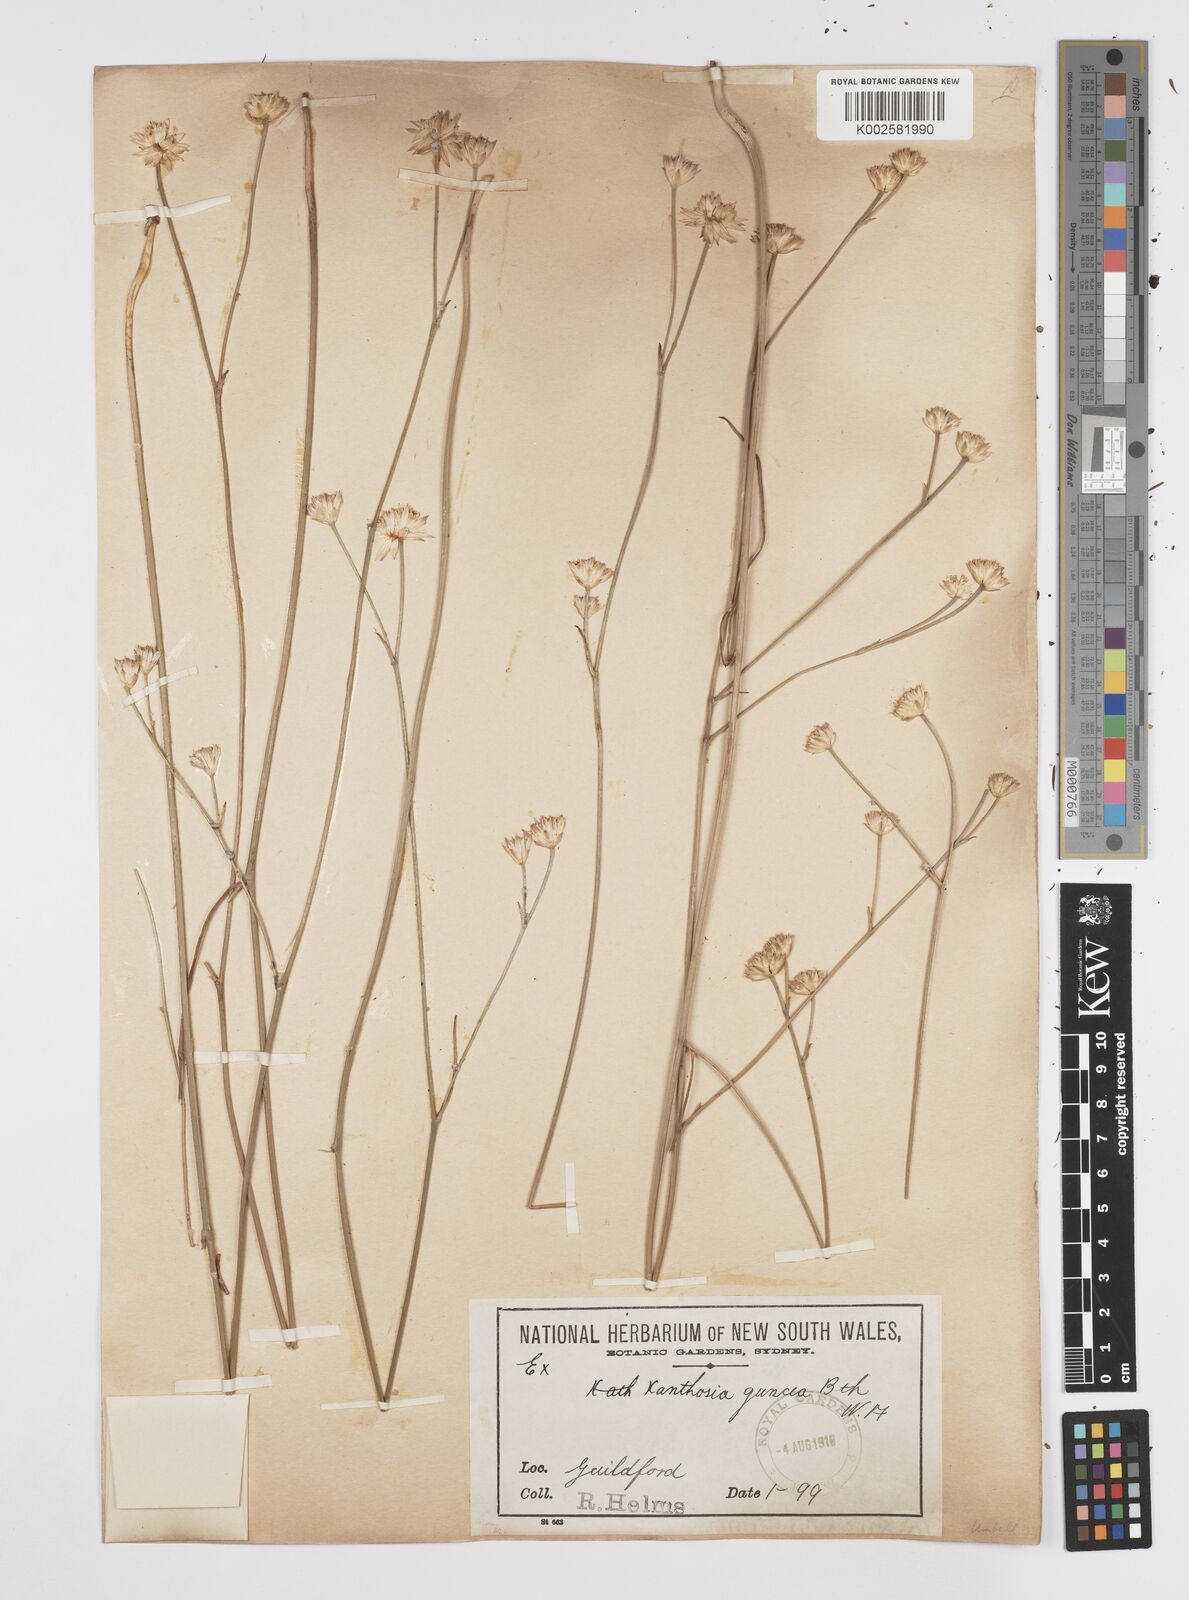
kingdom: Plantae
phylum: Tracheophyta
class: Magnoliopsida
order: Apiales
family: Apiaceae
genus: Schoenolaena
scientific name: Schoenolaena juncea
